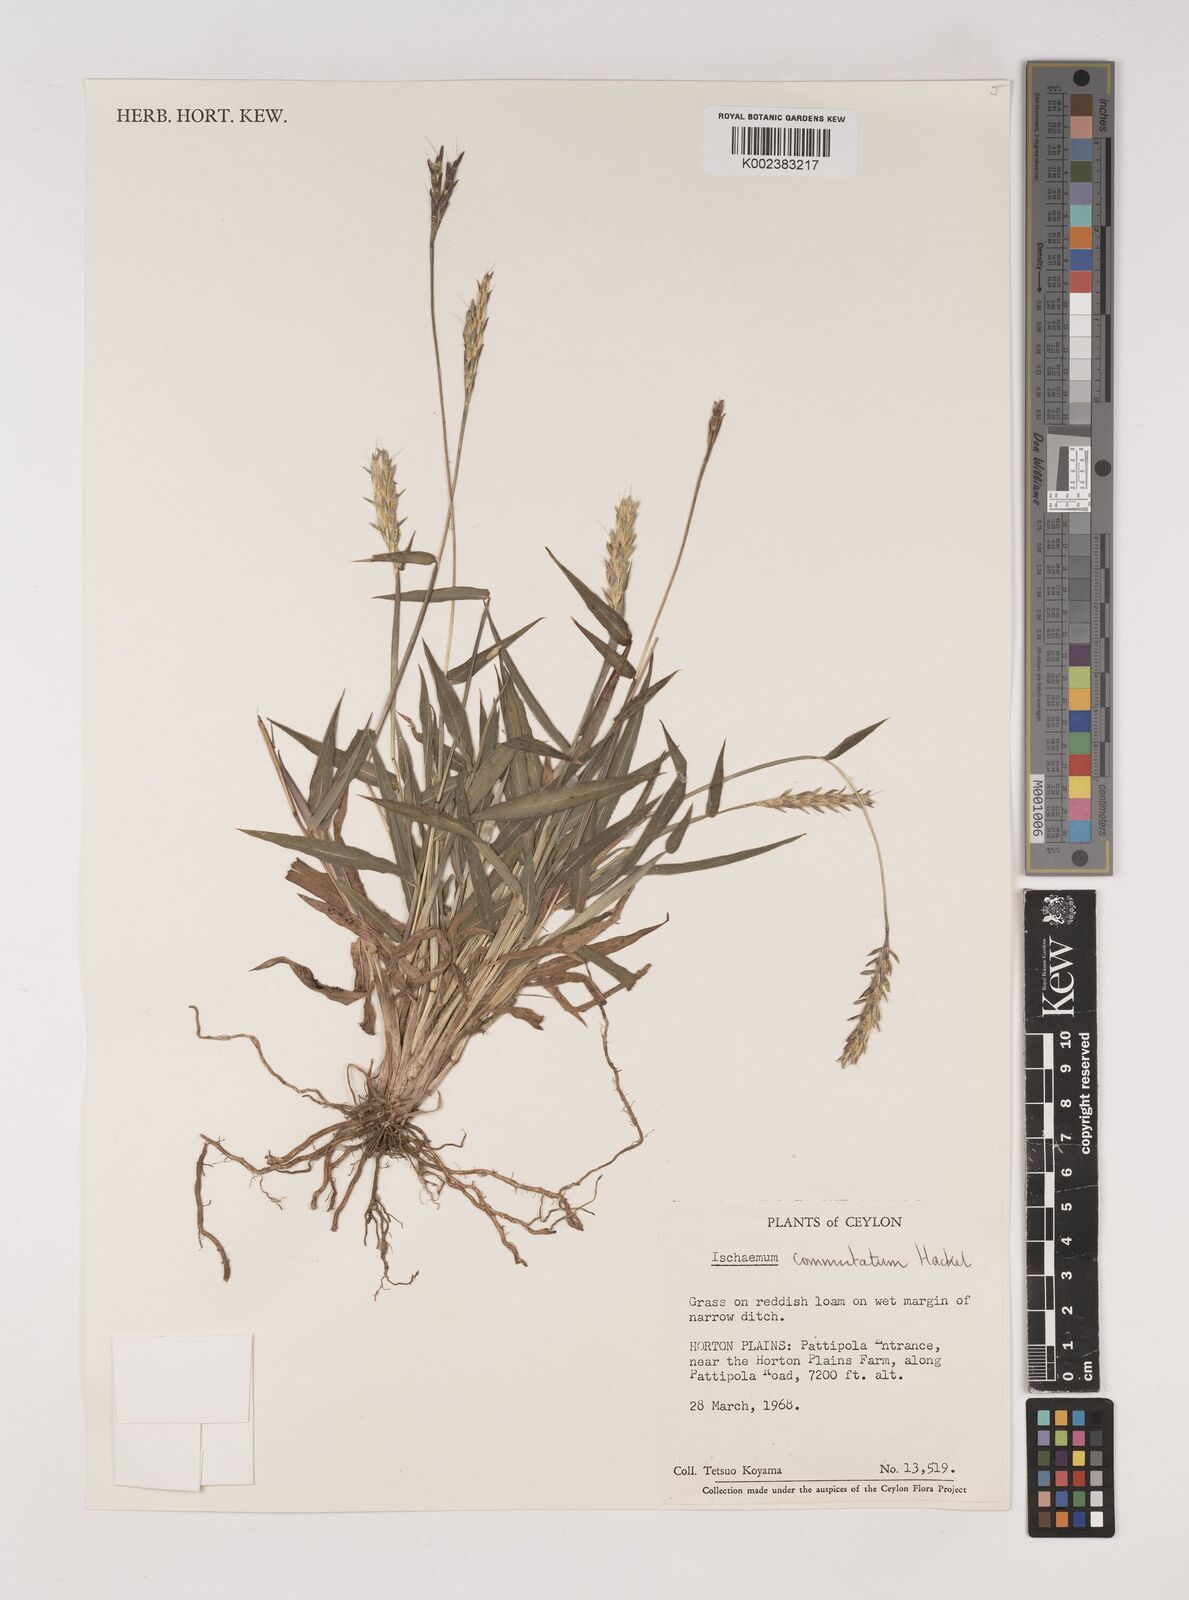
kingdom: Plantae
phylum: Tracheophyta
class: Liliopsida
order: Poales
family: Poaceae
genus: Ischaemum
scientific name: Ischaemum commutatum
